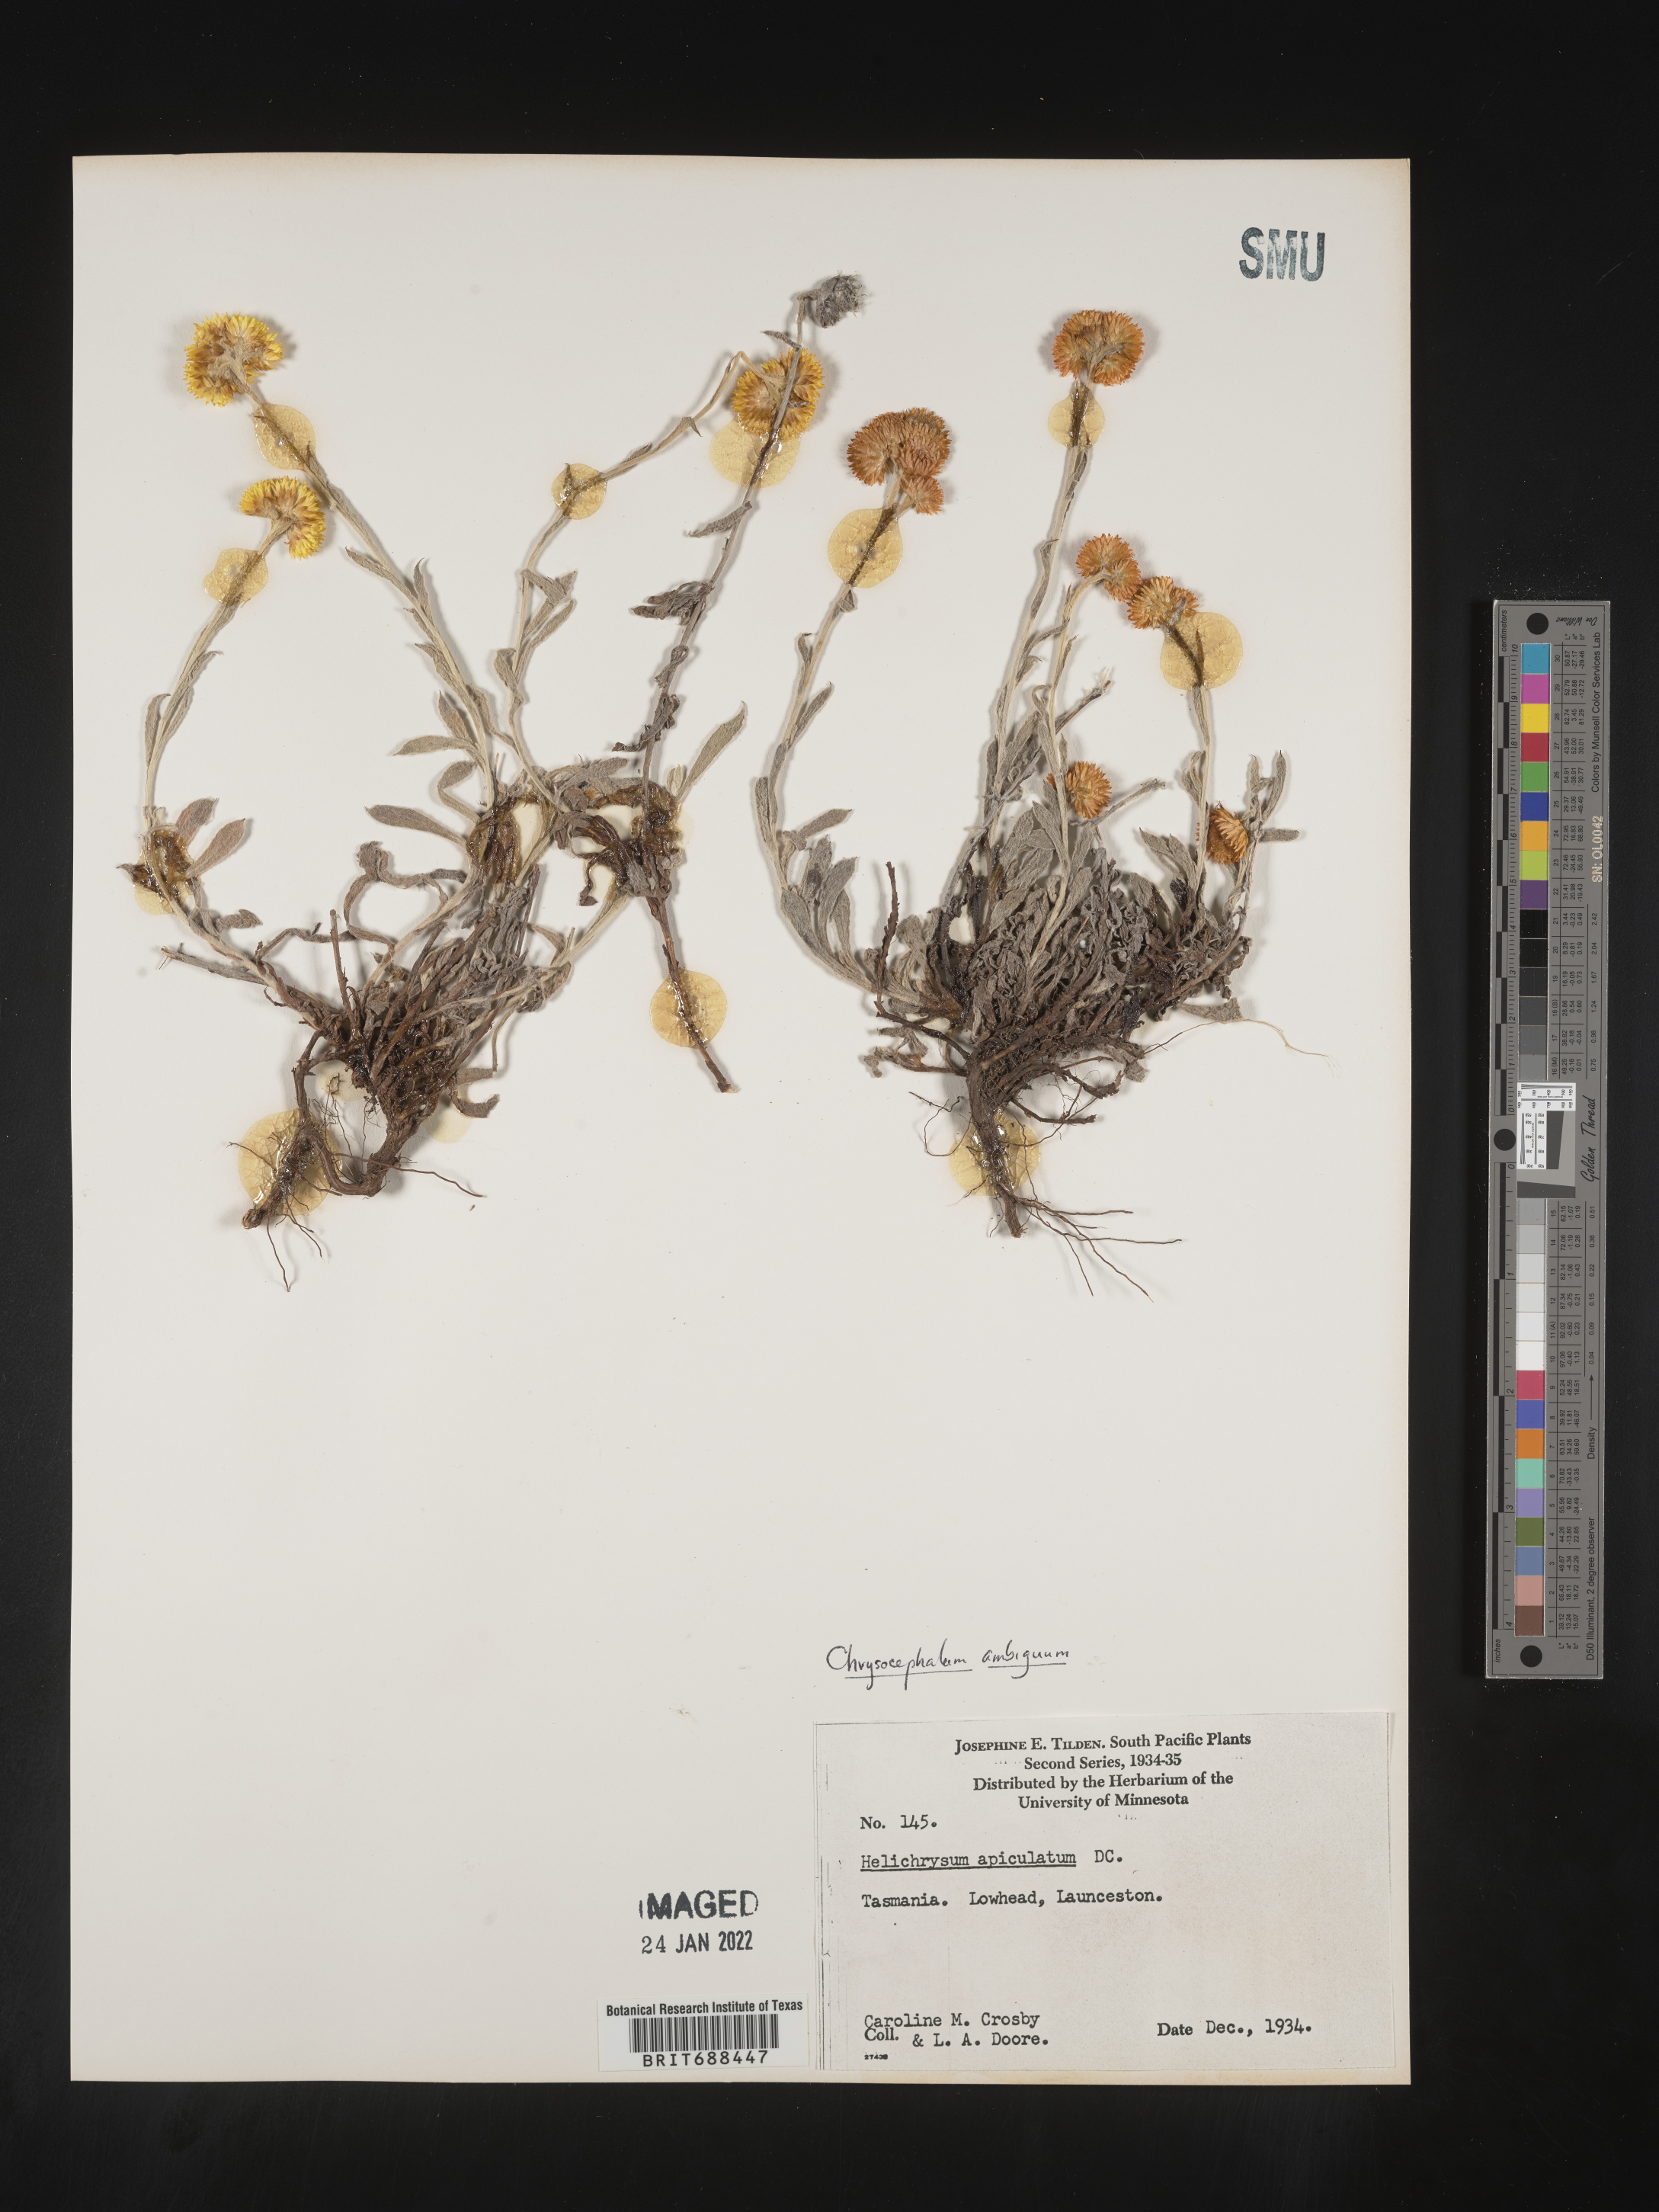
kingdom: Plantae
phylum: Tracheophyta
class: Magnoliopsida
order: Asterales
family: Asteraceae
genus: Chrysocephalum
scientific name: Chrysocephalum
